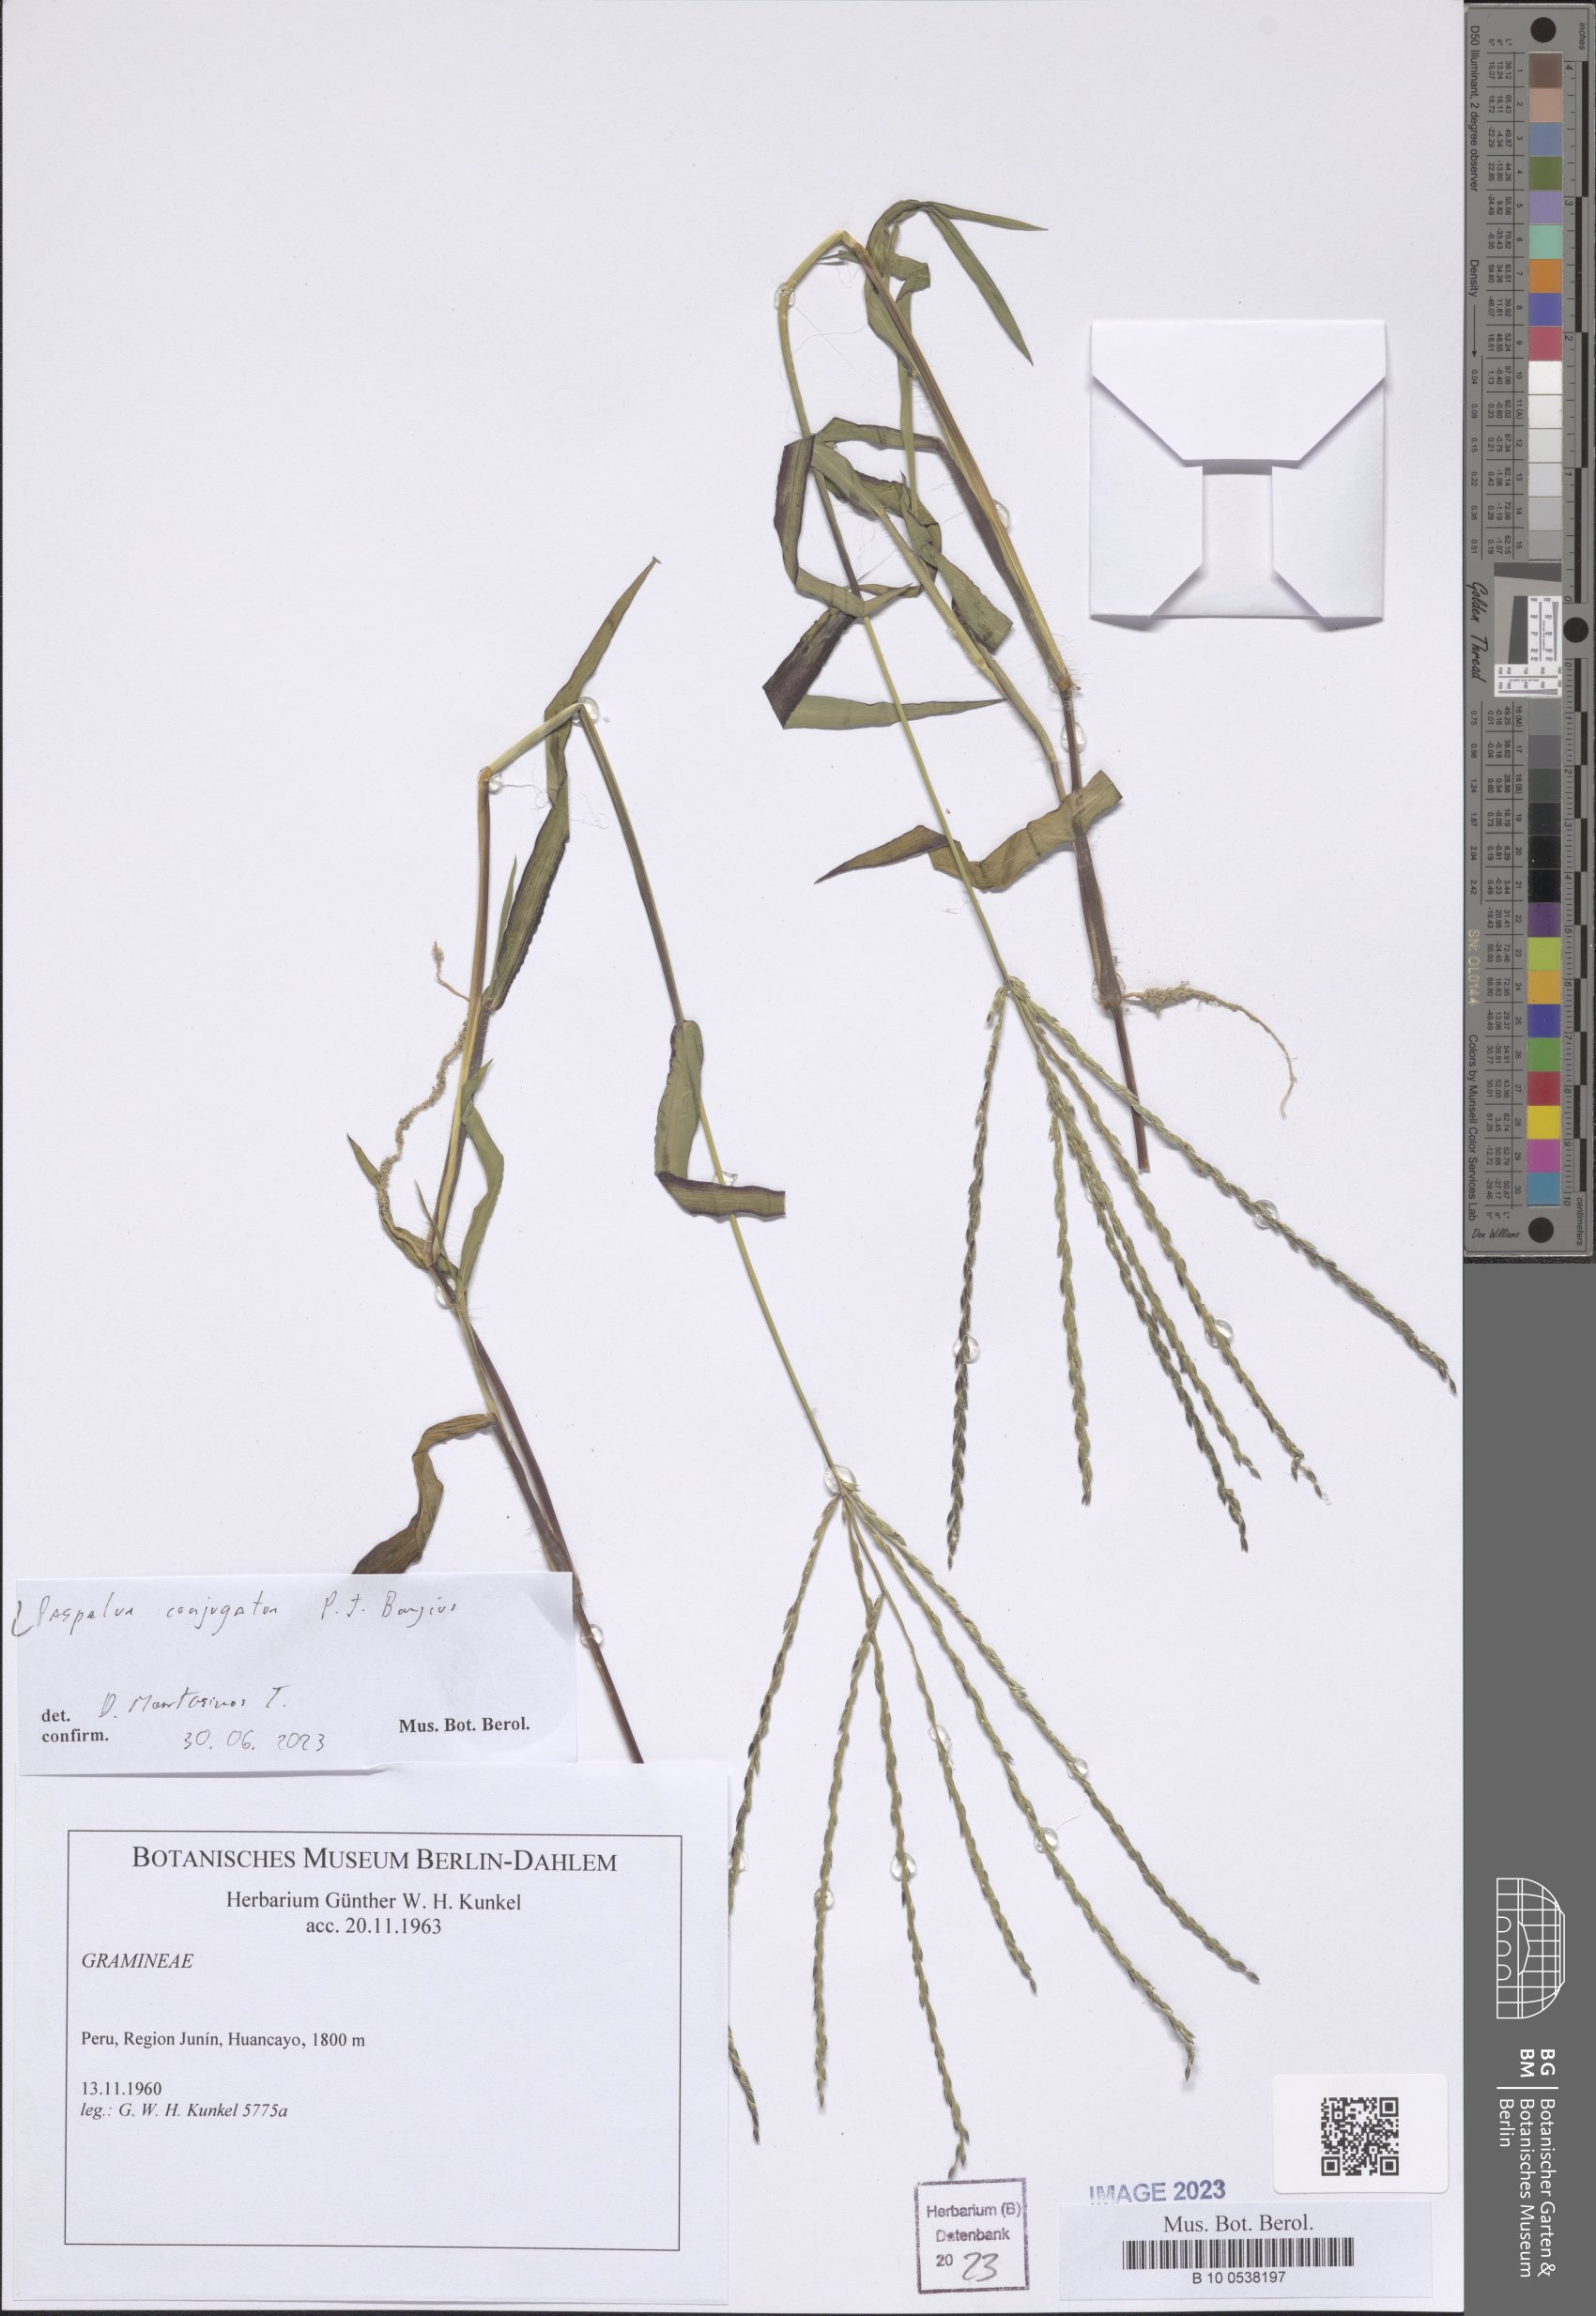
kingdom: Plantae
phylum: Tracheophyta
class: Liliopsida
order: Poales
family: Poaceae
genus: Paspalum
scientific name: Paspalum conjugatum
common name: Hilograss
